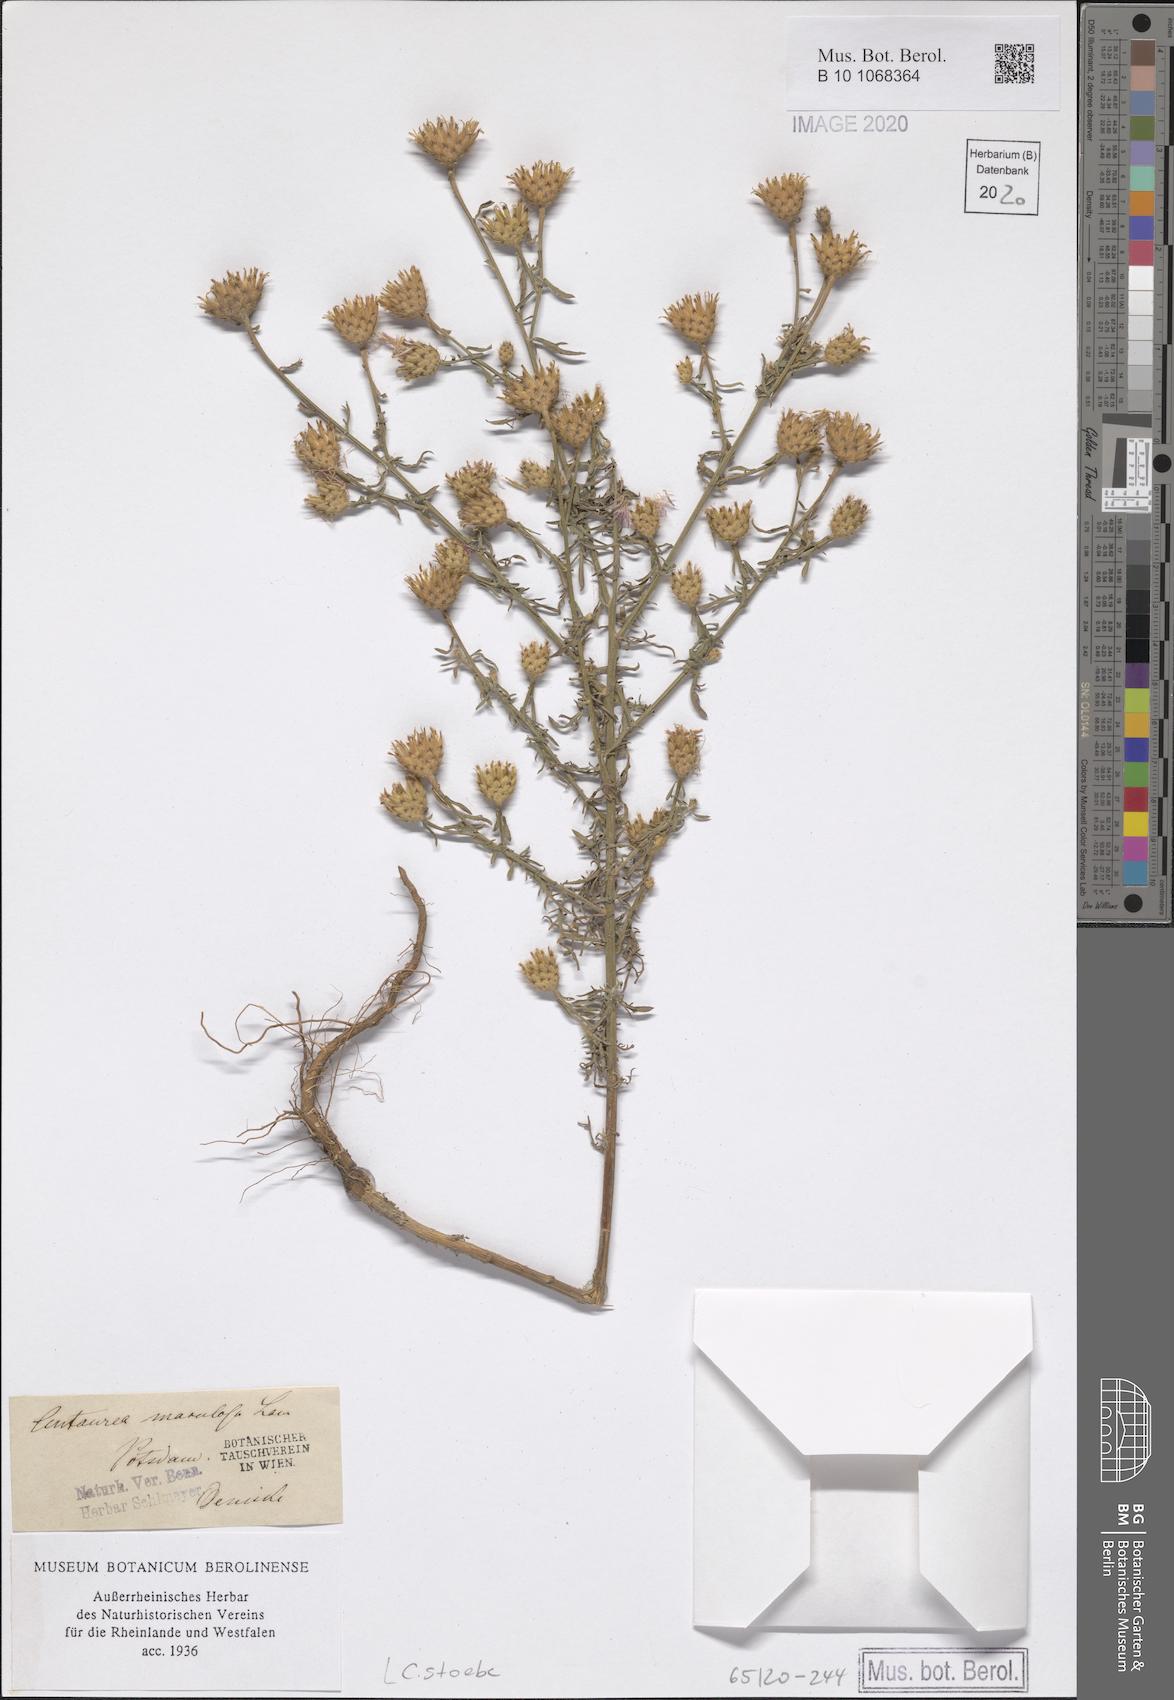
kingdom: Plantae
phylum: Tracheophyta
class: Magnoliopsida
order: Asterales
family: Asteraceae
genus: Centaurea
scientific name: Centaurea stoebe
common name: Spotted knapweed
